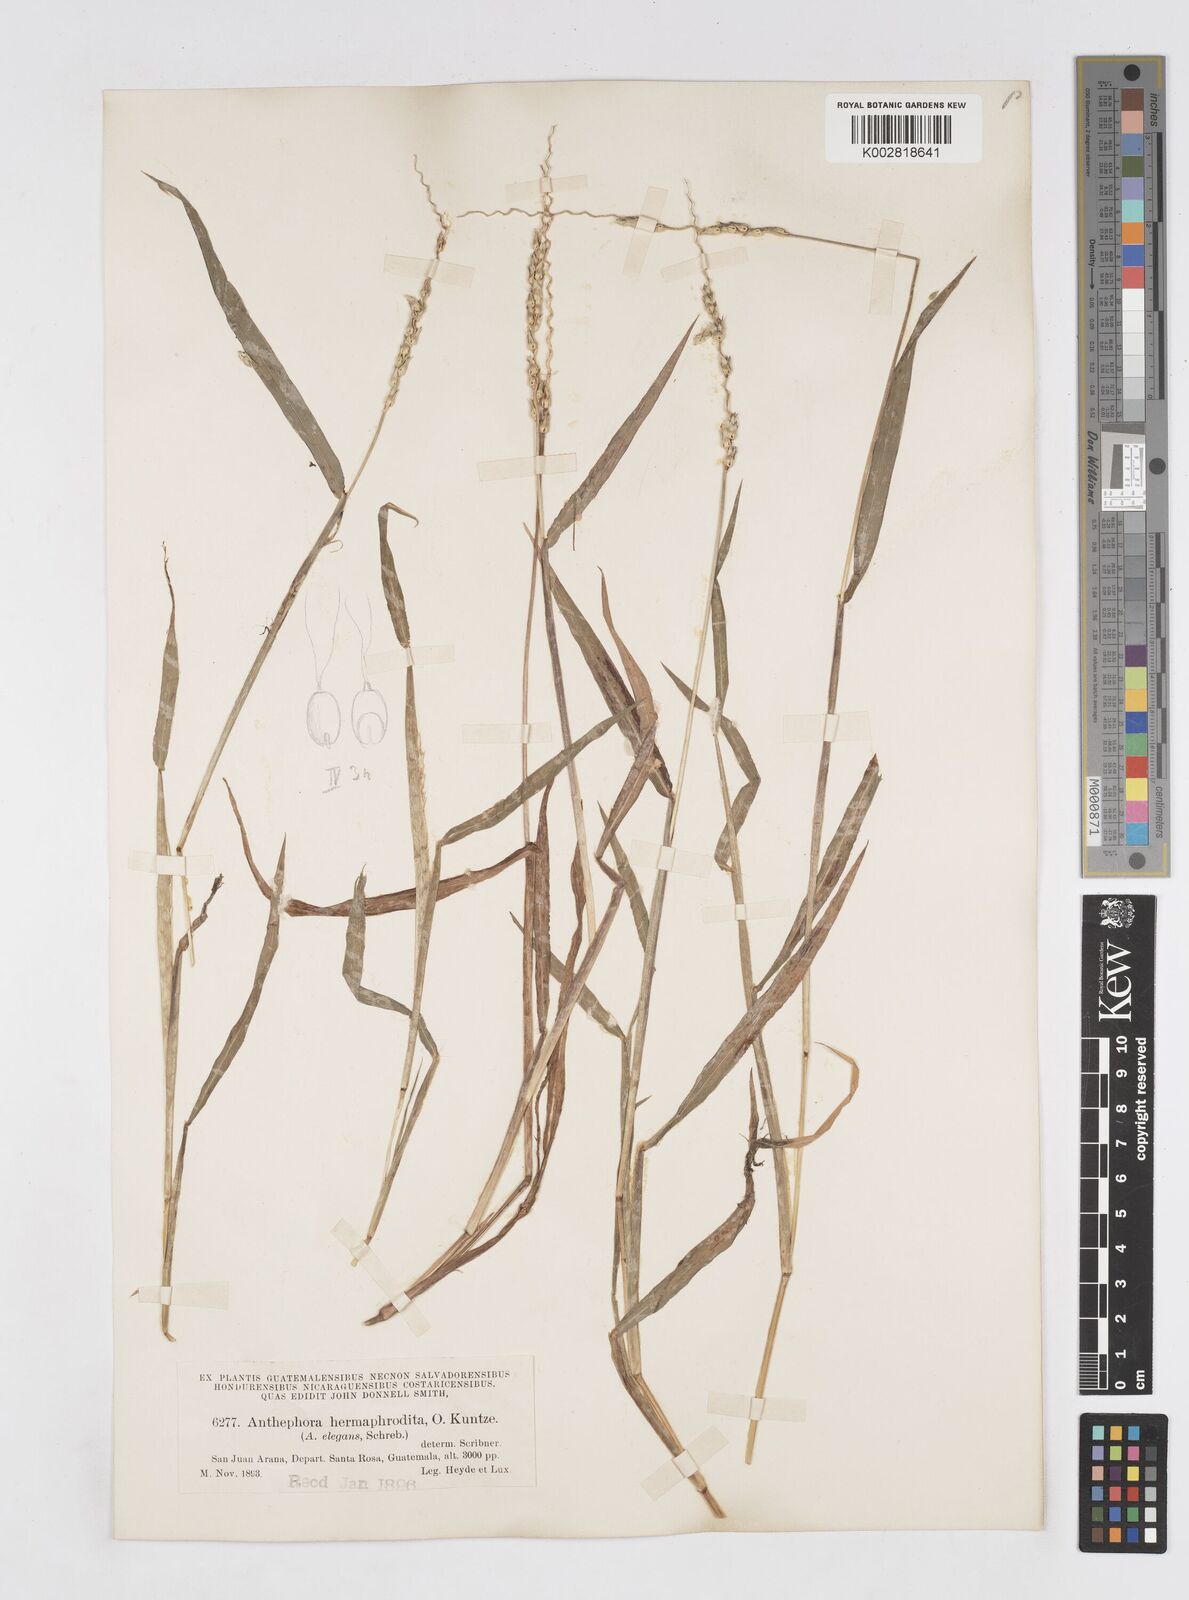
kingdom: Plantae
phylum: Tracheophyta
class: Liliopsida
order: Poales
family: Poaceae
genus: Anthephora
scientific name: Anthephora hermaphrodita
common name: Oldfield grass
